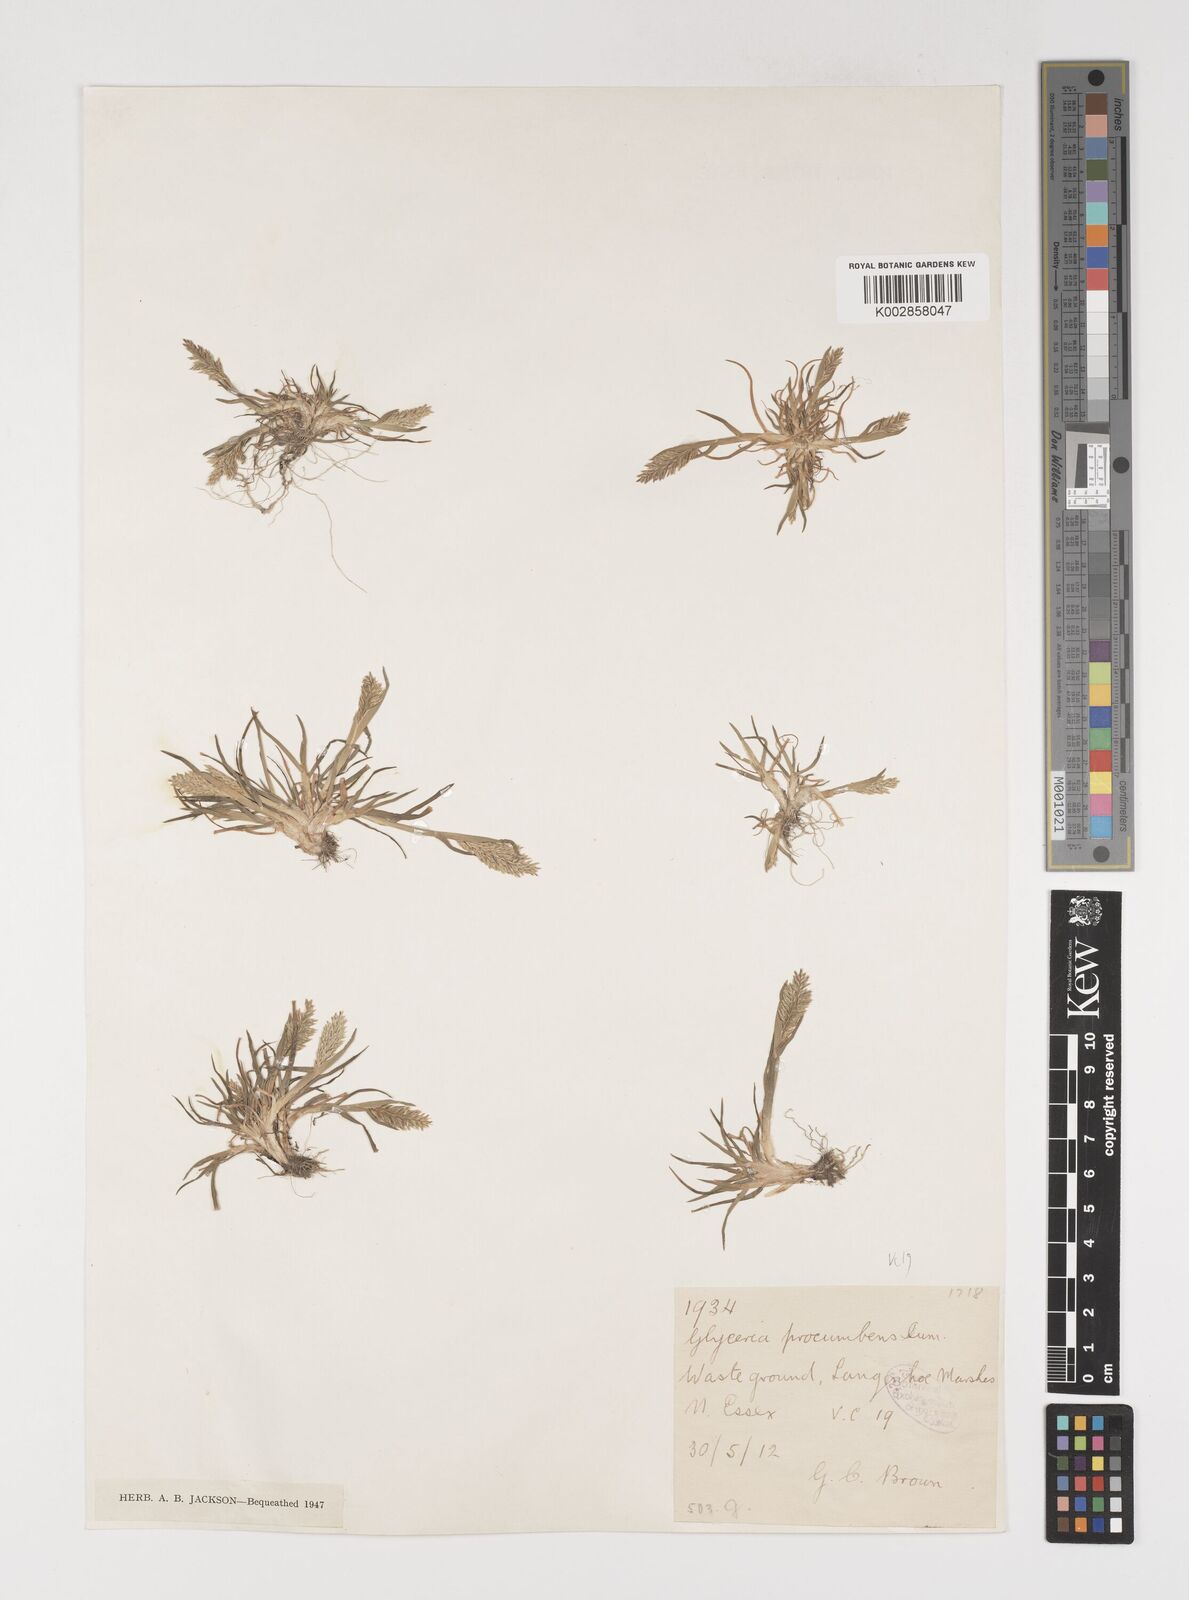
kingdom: Plantae
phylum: Tracheophyta
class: Liliopsida
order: Poales
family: Poaceae
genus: Puccinellia
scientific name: Puccinellia rupestris
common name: Stiff saltmarsh-grass
